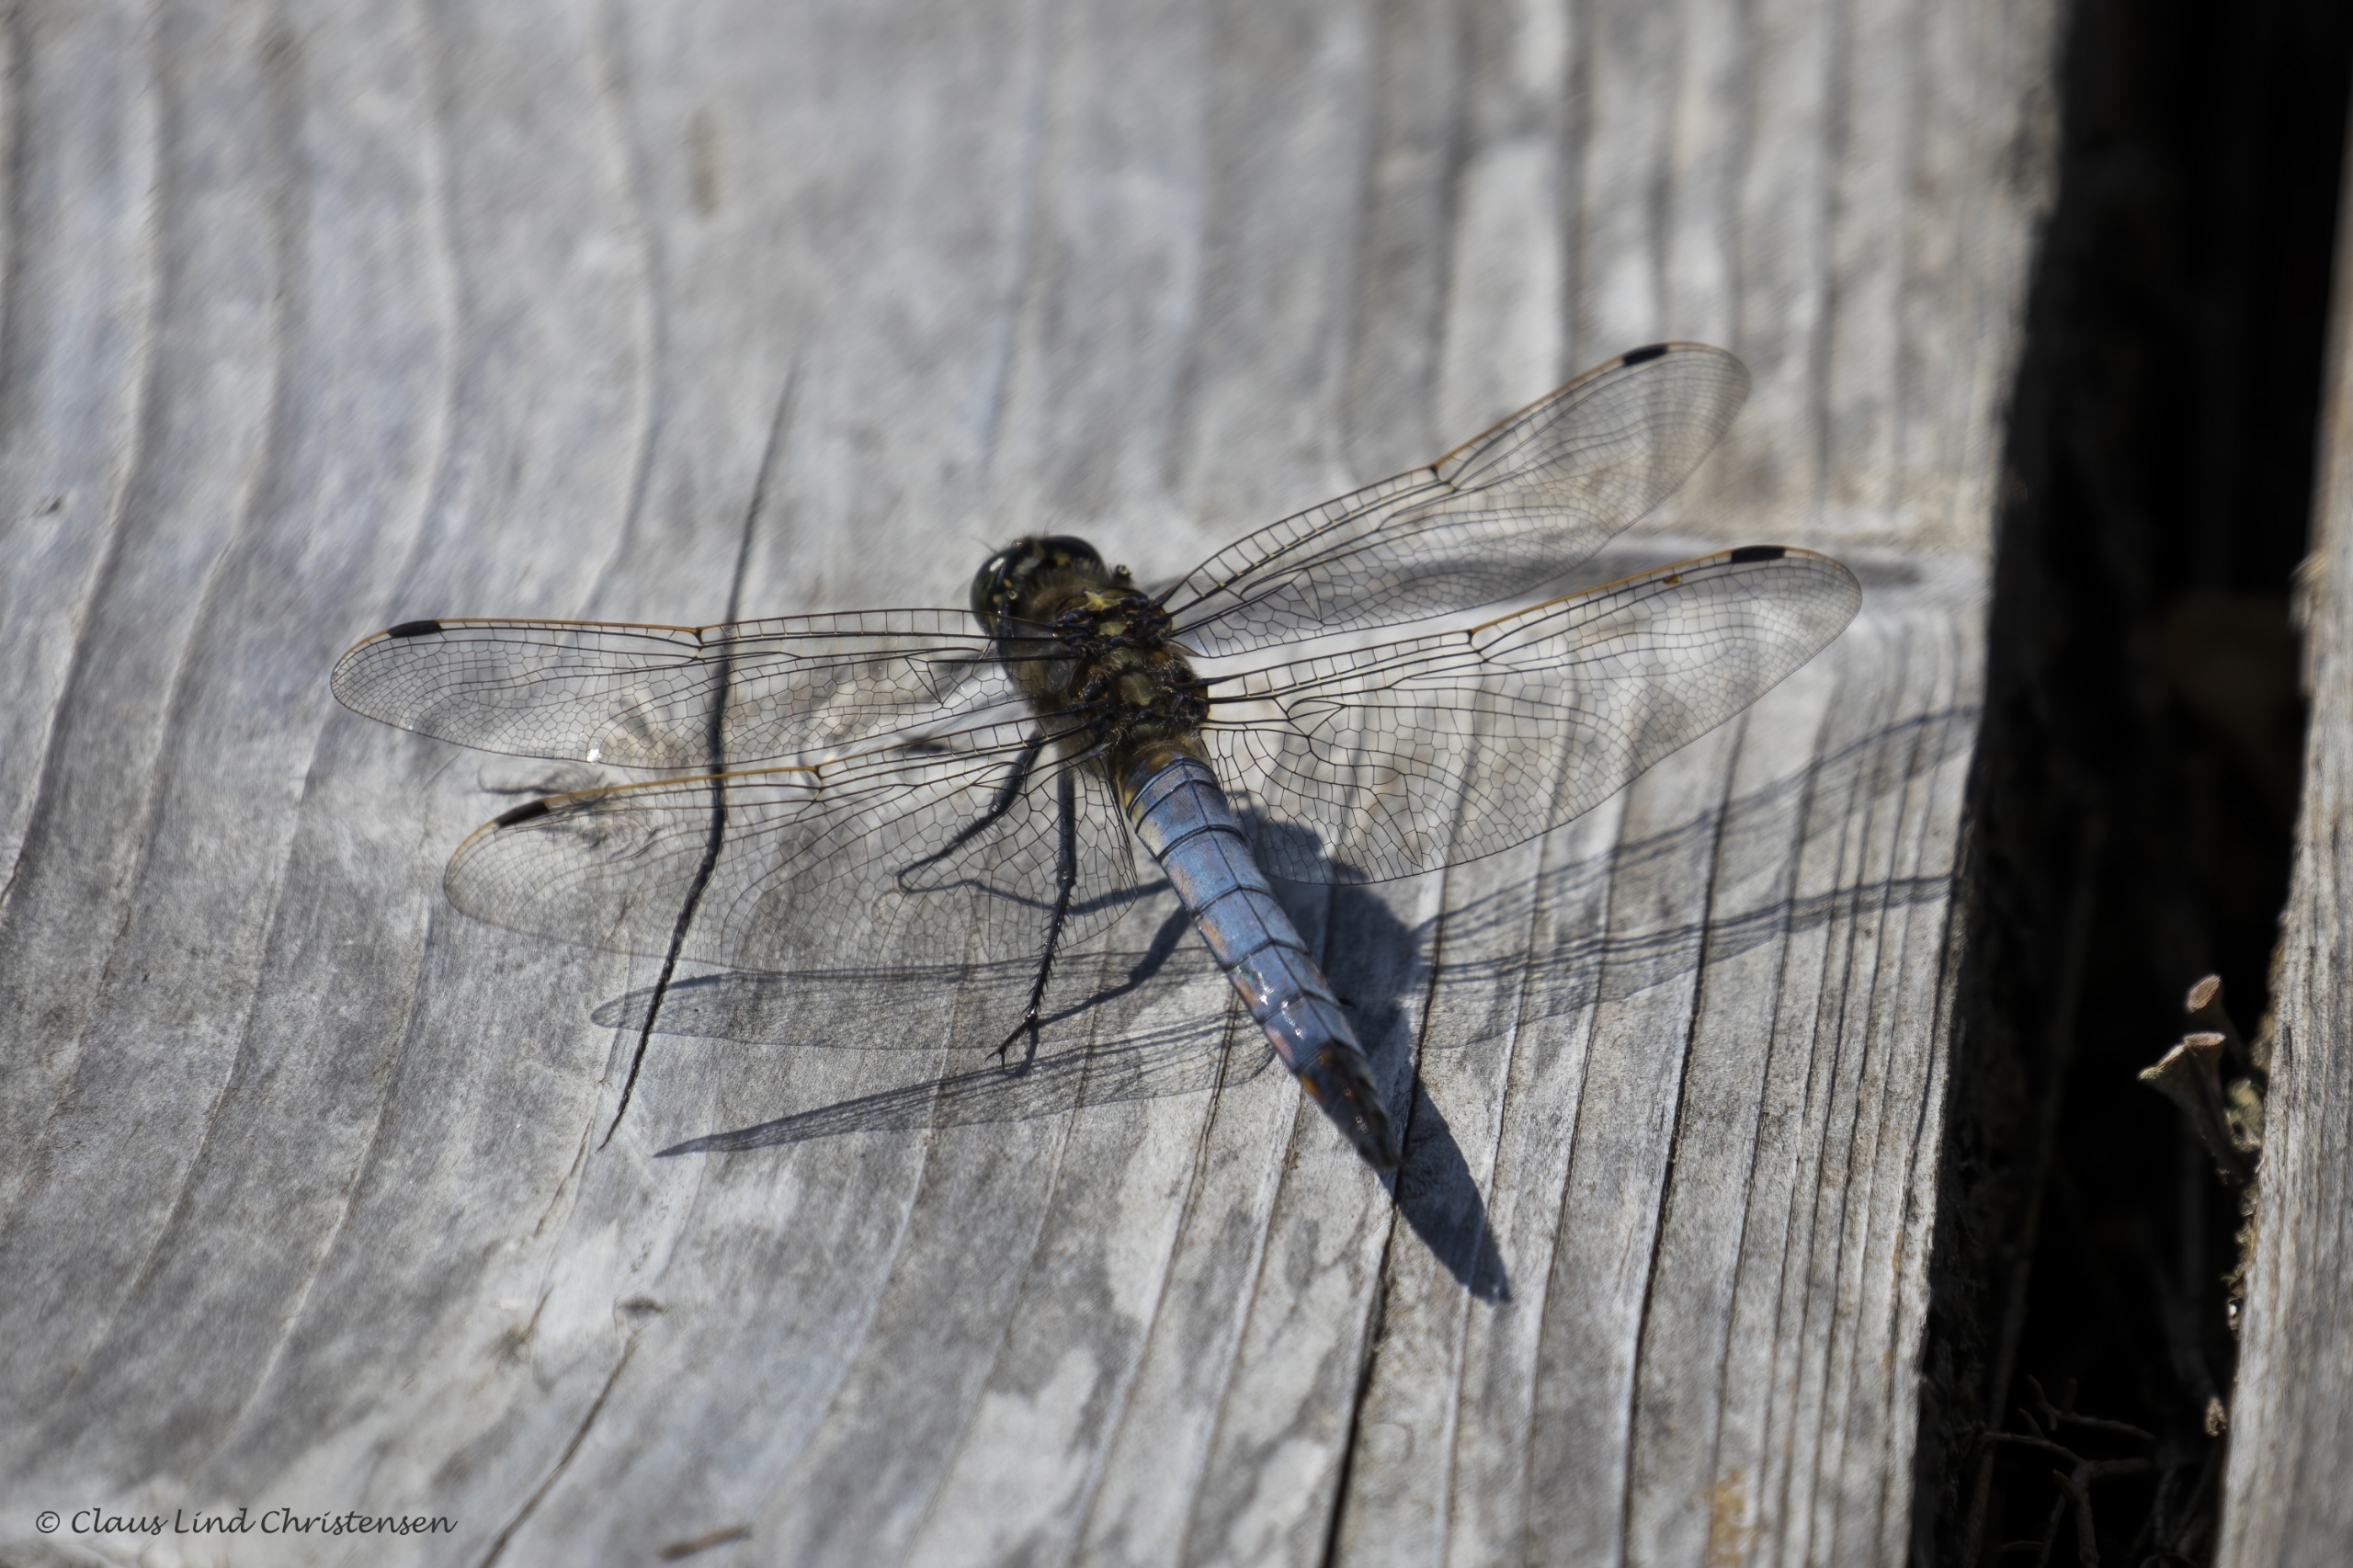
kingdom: Animalia
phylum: Arthropoda
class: Insecta
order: Odonata
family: Libellulidae
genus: Orthetrum
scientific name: Orthetrum cancellatum
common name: Stor blåpil
